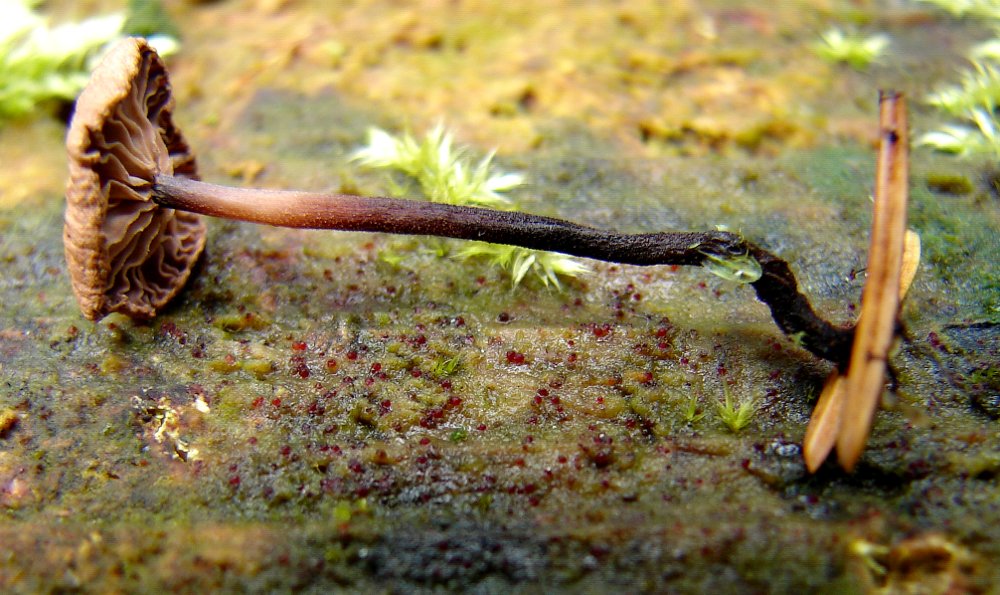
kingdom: Fungi
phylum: Basidiomycota
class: Agaricomycetes
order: Agaricales
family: Omphalotaceae
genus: Paragymnopus
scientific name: Paragymnopus perforans
